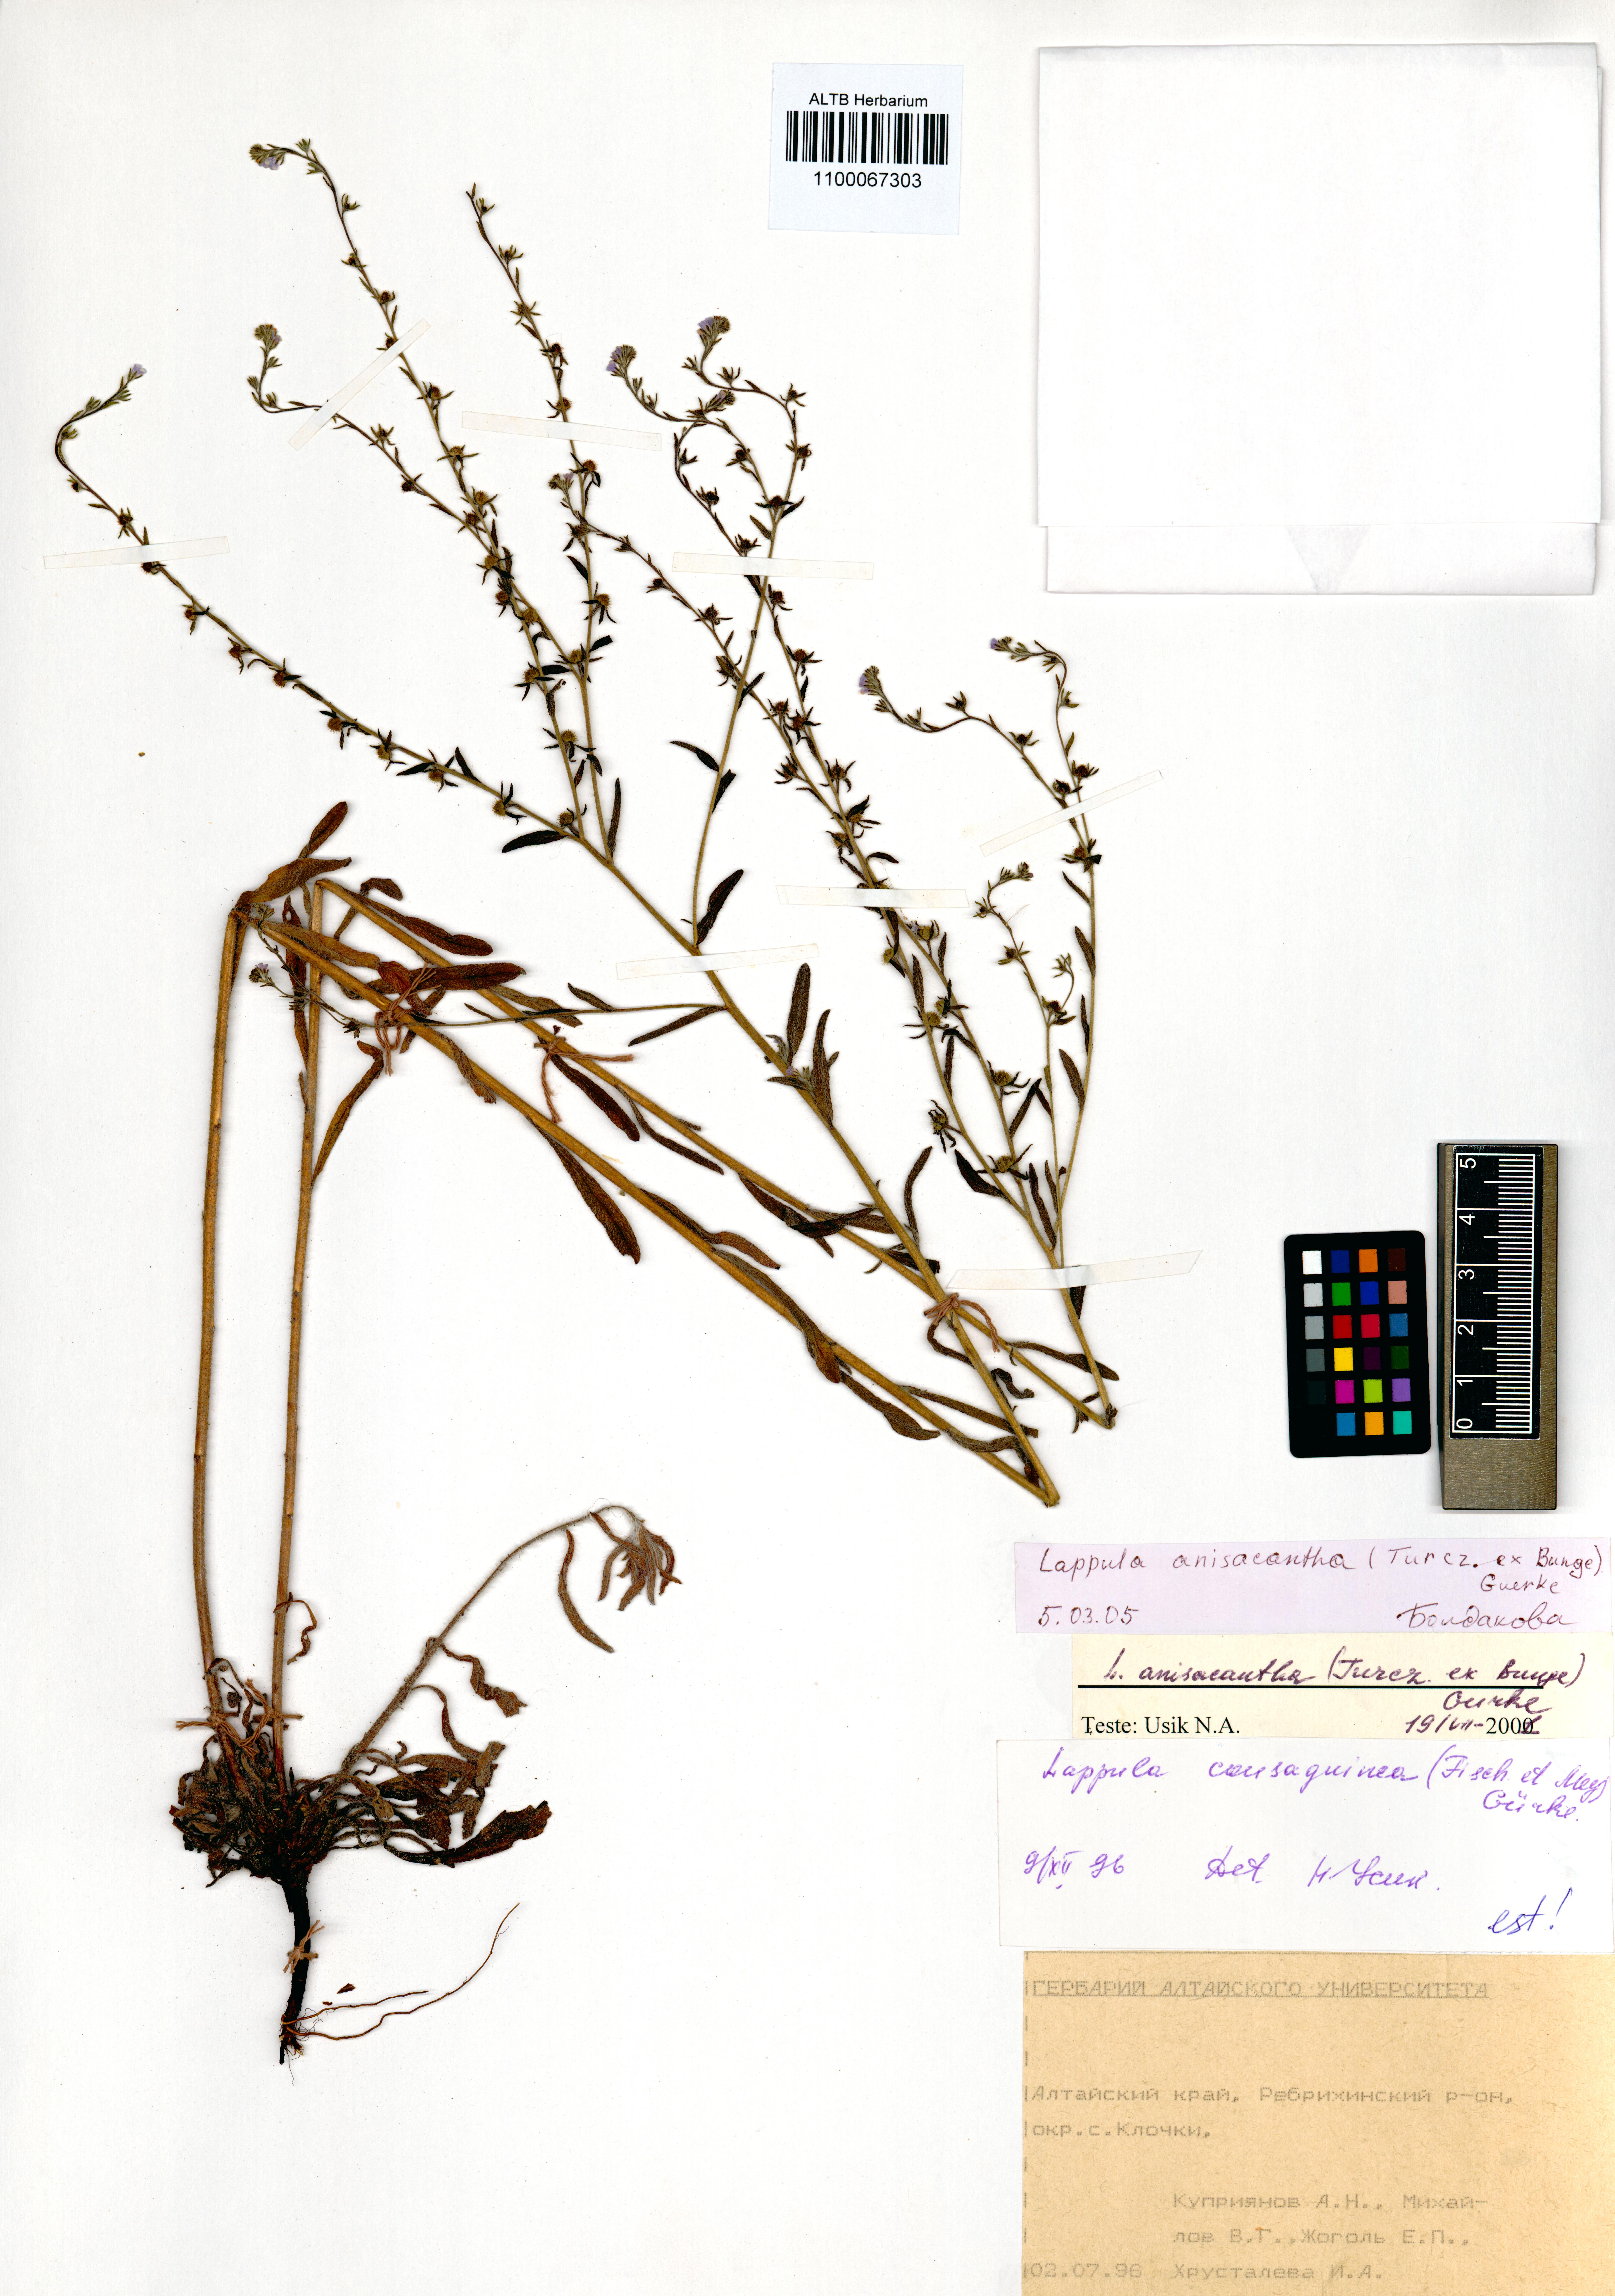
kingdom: Plantae
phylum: Tracheophyta
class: Magnoliopsida
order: Boraginales
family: Boraginaceae
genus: Lappula
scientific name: Lappula intermedia
